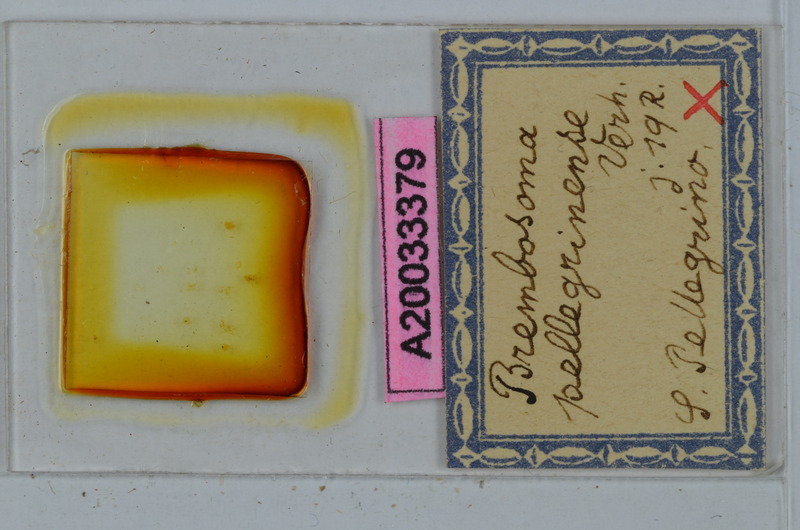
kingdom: Animalia
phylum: Arthropoda
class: Diplopoda
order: Polydesmida
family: Polydesmidae
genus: Brembosoma
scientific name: Brembosoma castagnolense
